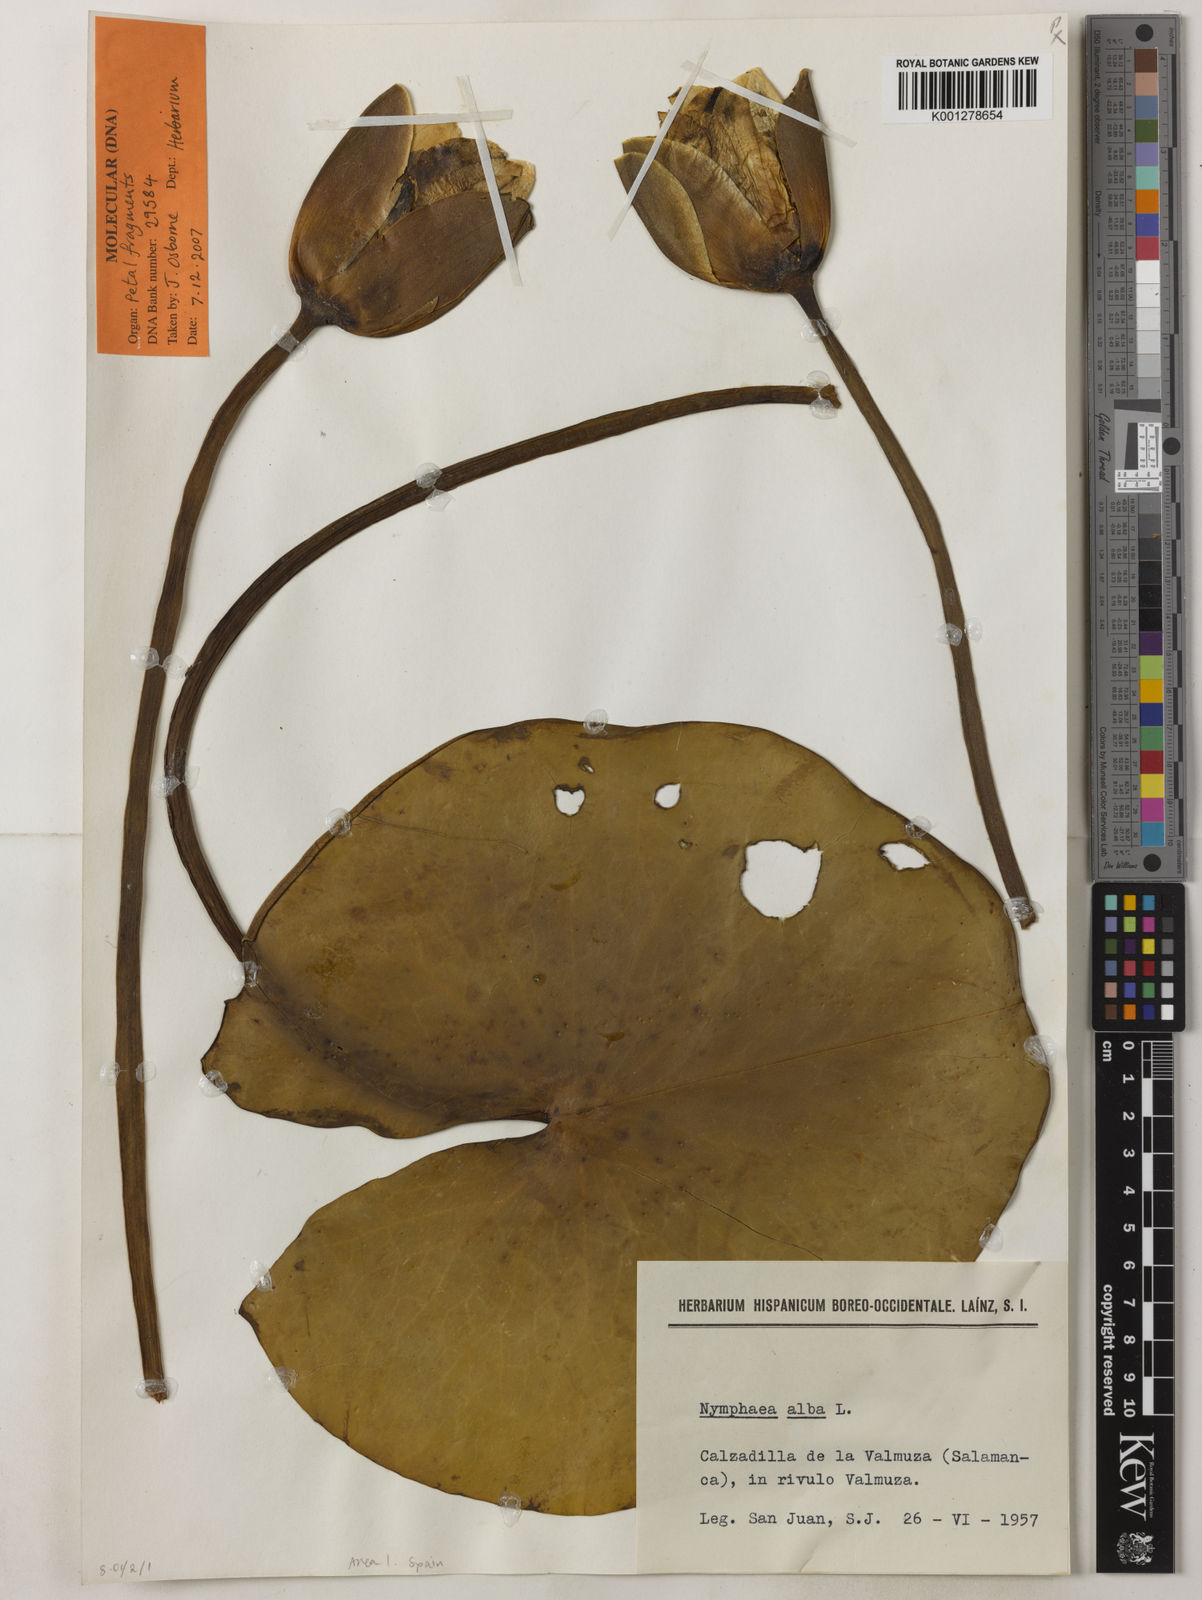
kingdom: Plantae
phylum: Tracheophyta
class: Magnoliopsida
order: Nymphaeales
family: Nymphaeaceae
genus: Nymphaea
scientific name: Nymphaea alba
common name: White water-lily
